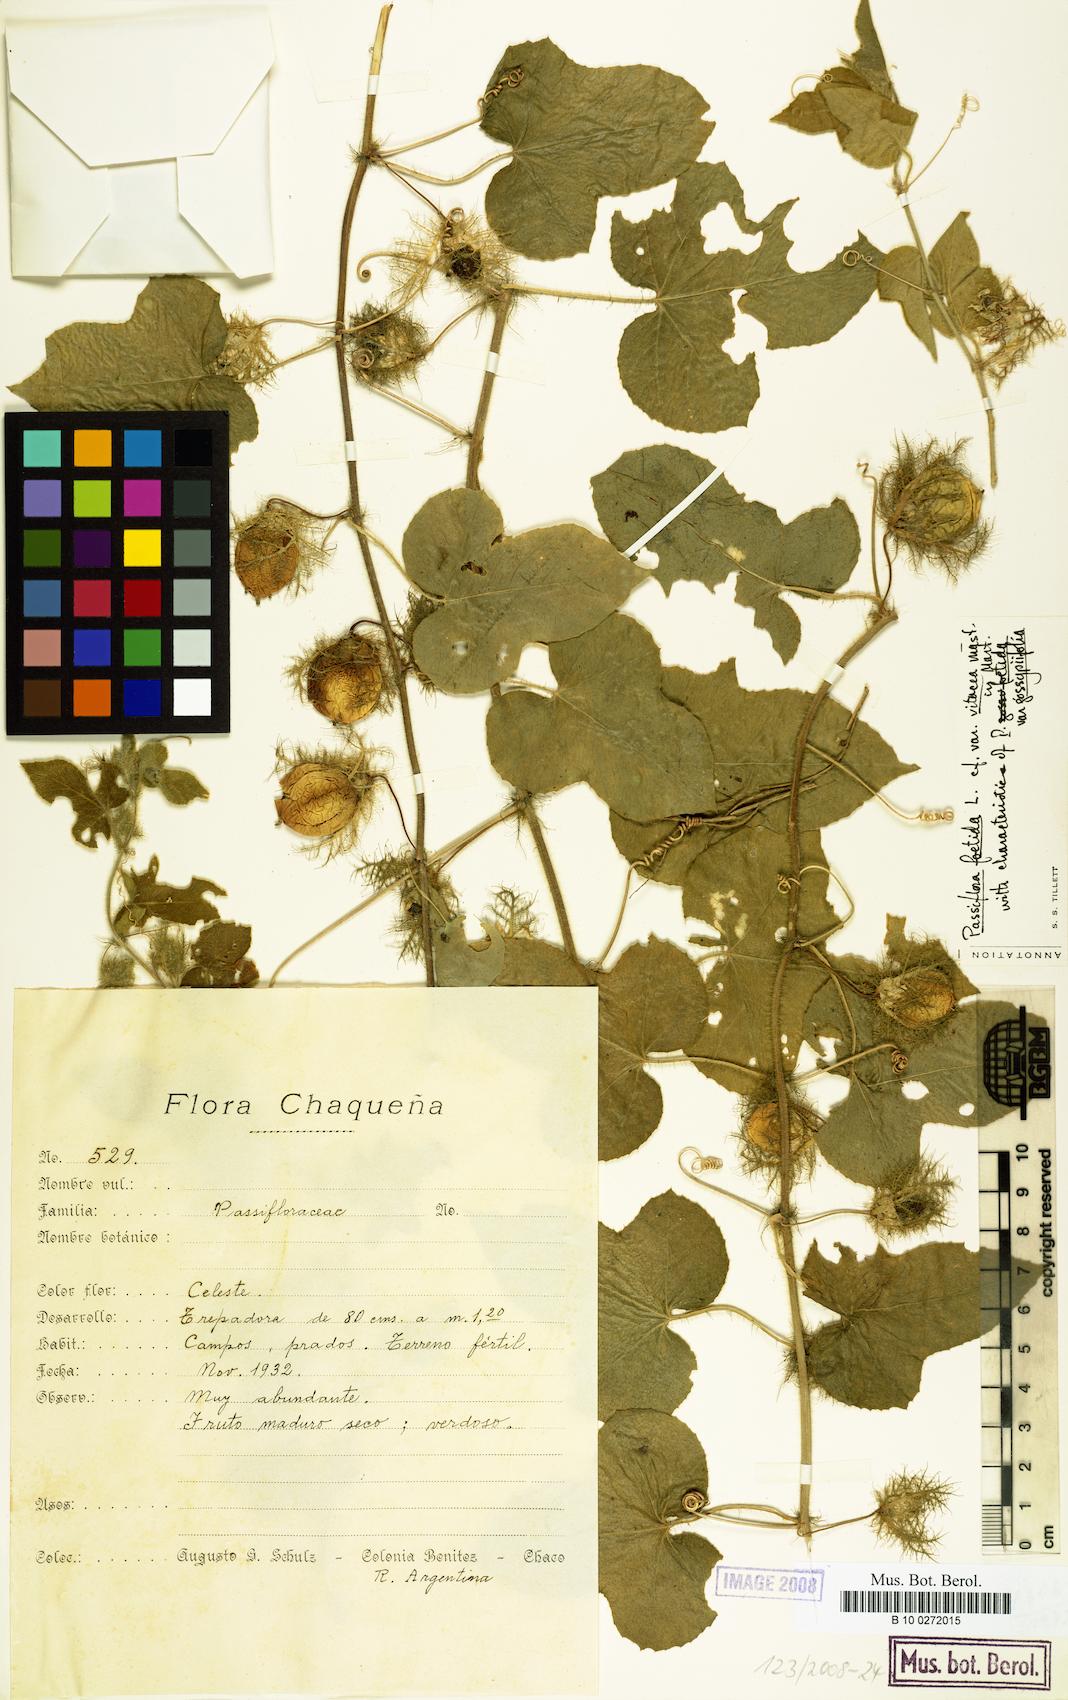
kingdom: Plantae
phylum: Tracheophyta
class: Magnoliopsida
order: Malpighiales
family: Passifloraceae
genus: Passiflora
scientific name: Passiflora chrysophylla
